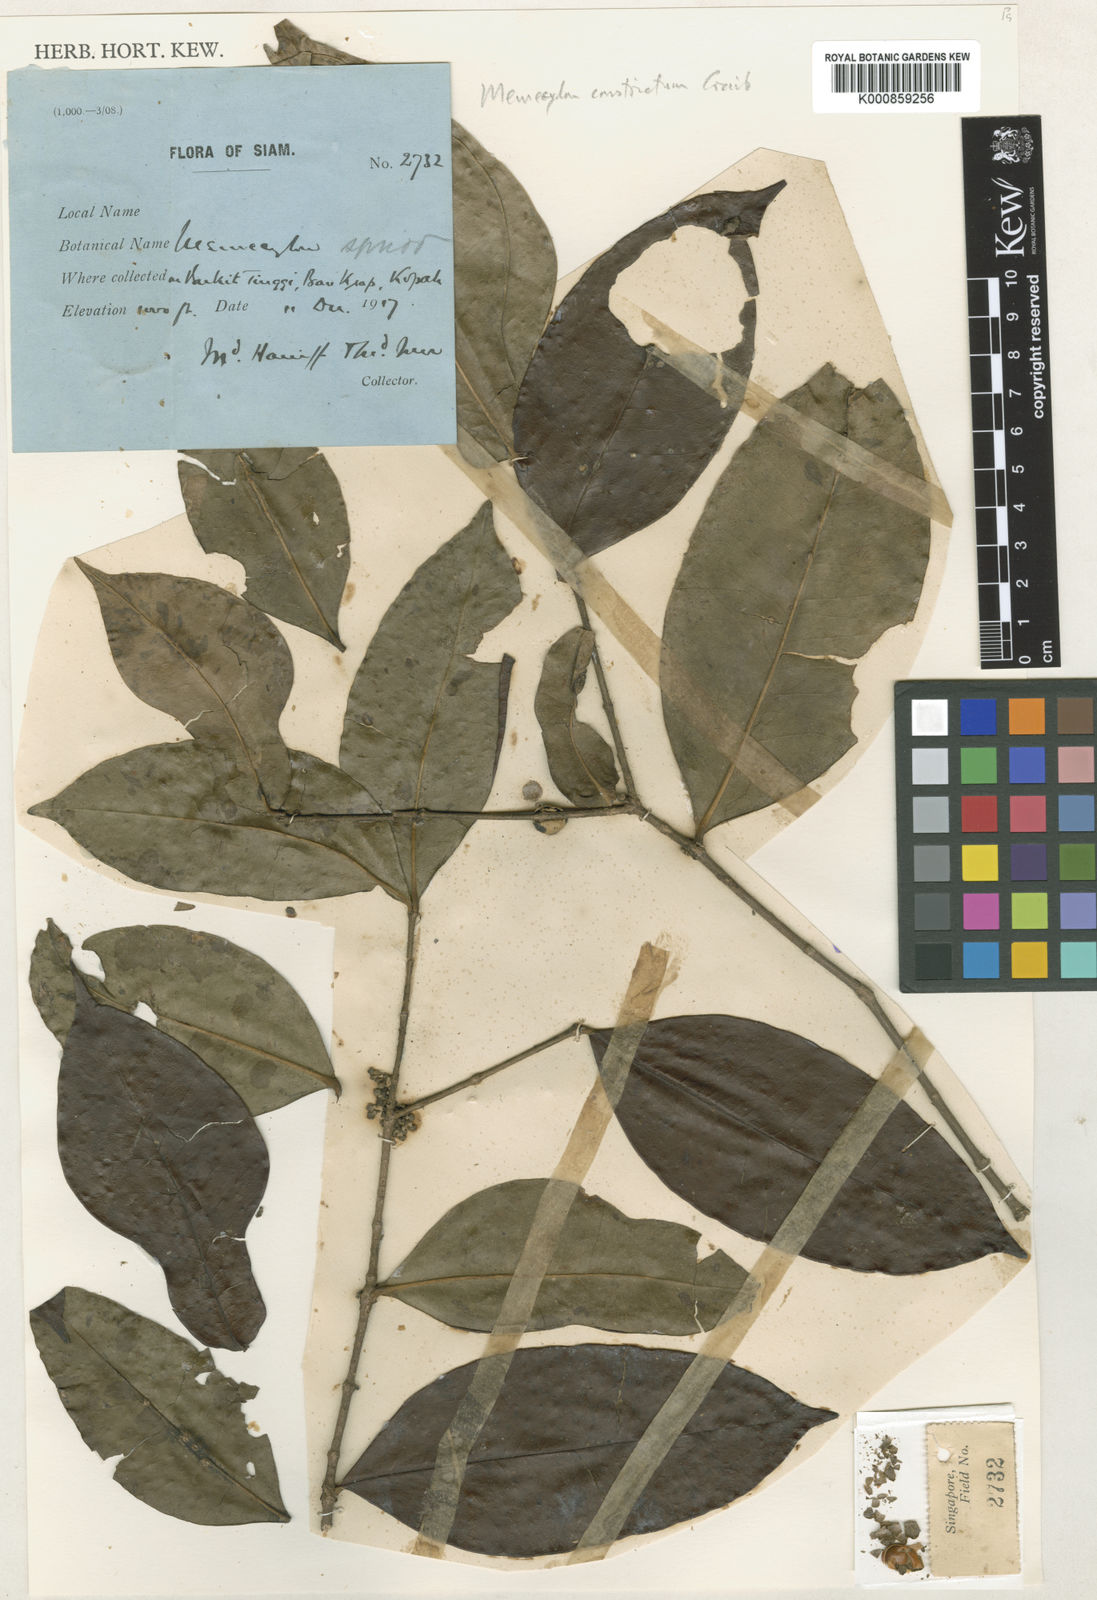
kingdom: Plantae
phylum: Tracheophyta
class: Magnoliopsida
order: Myrtales
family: Melastomataceae
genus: Memecylon
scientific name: Memecylon minutiflorum
